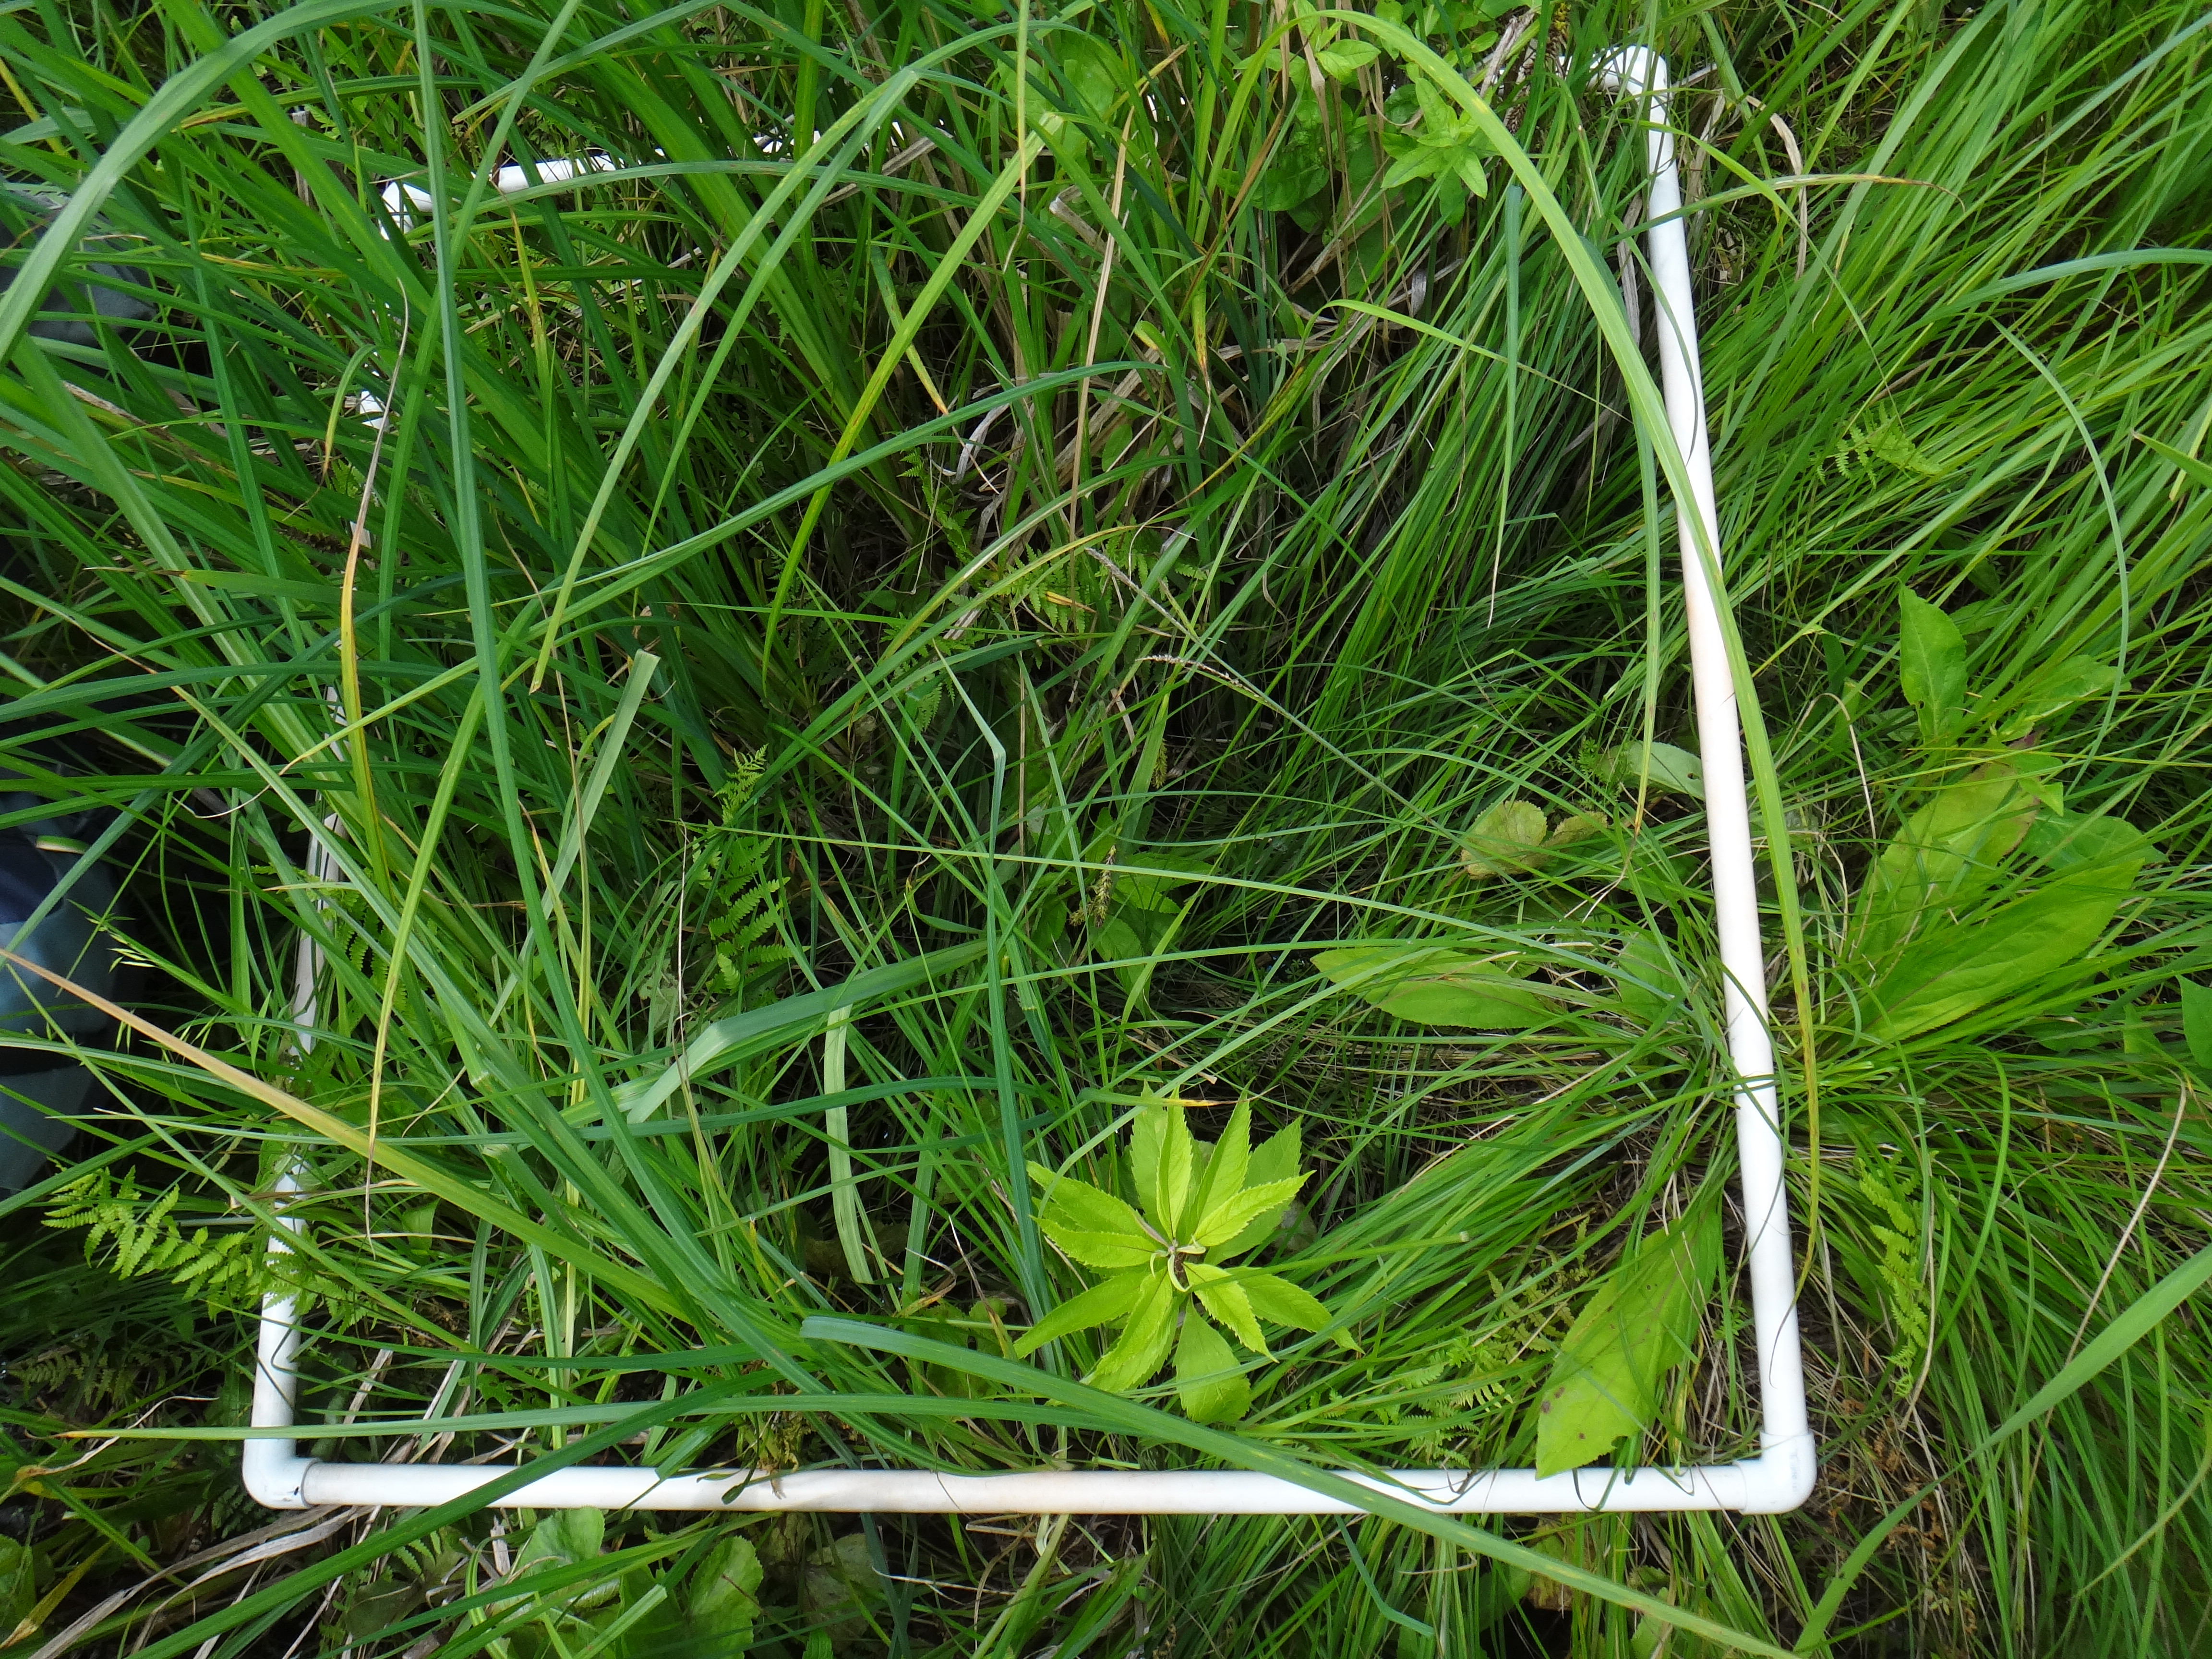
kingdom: Plantae
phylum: Tracheophyta
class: Liliopsida
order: Poales
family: Poaceae
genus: Agrostis
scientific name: Agrostis gigantea
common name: Black bent
